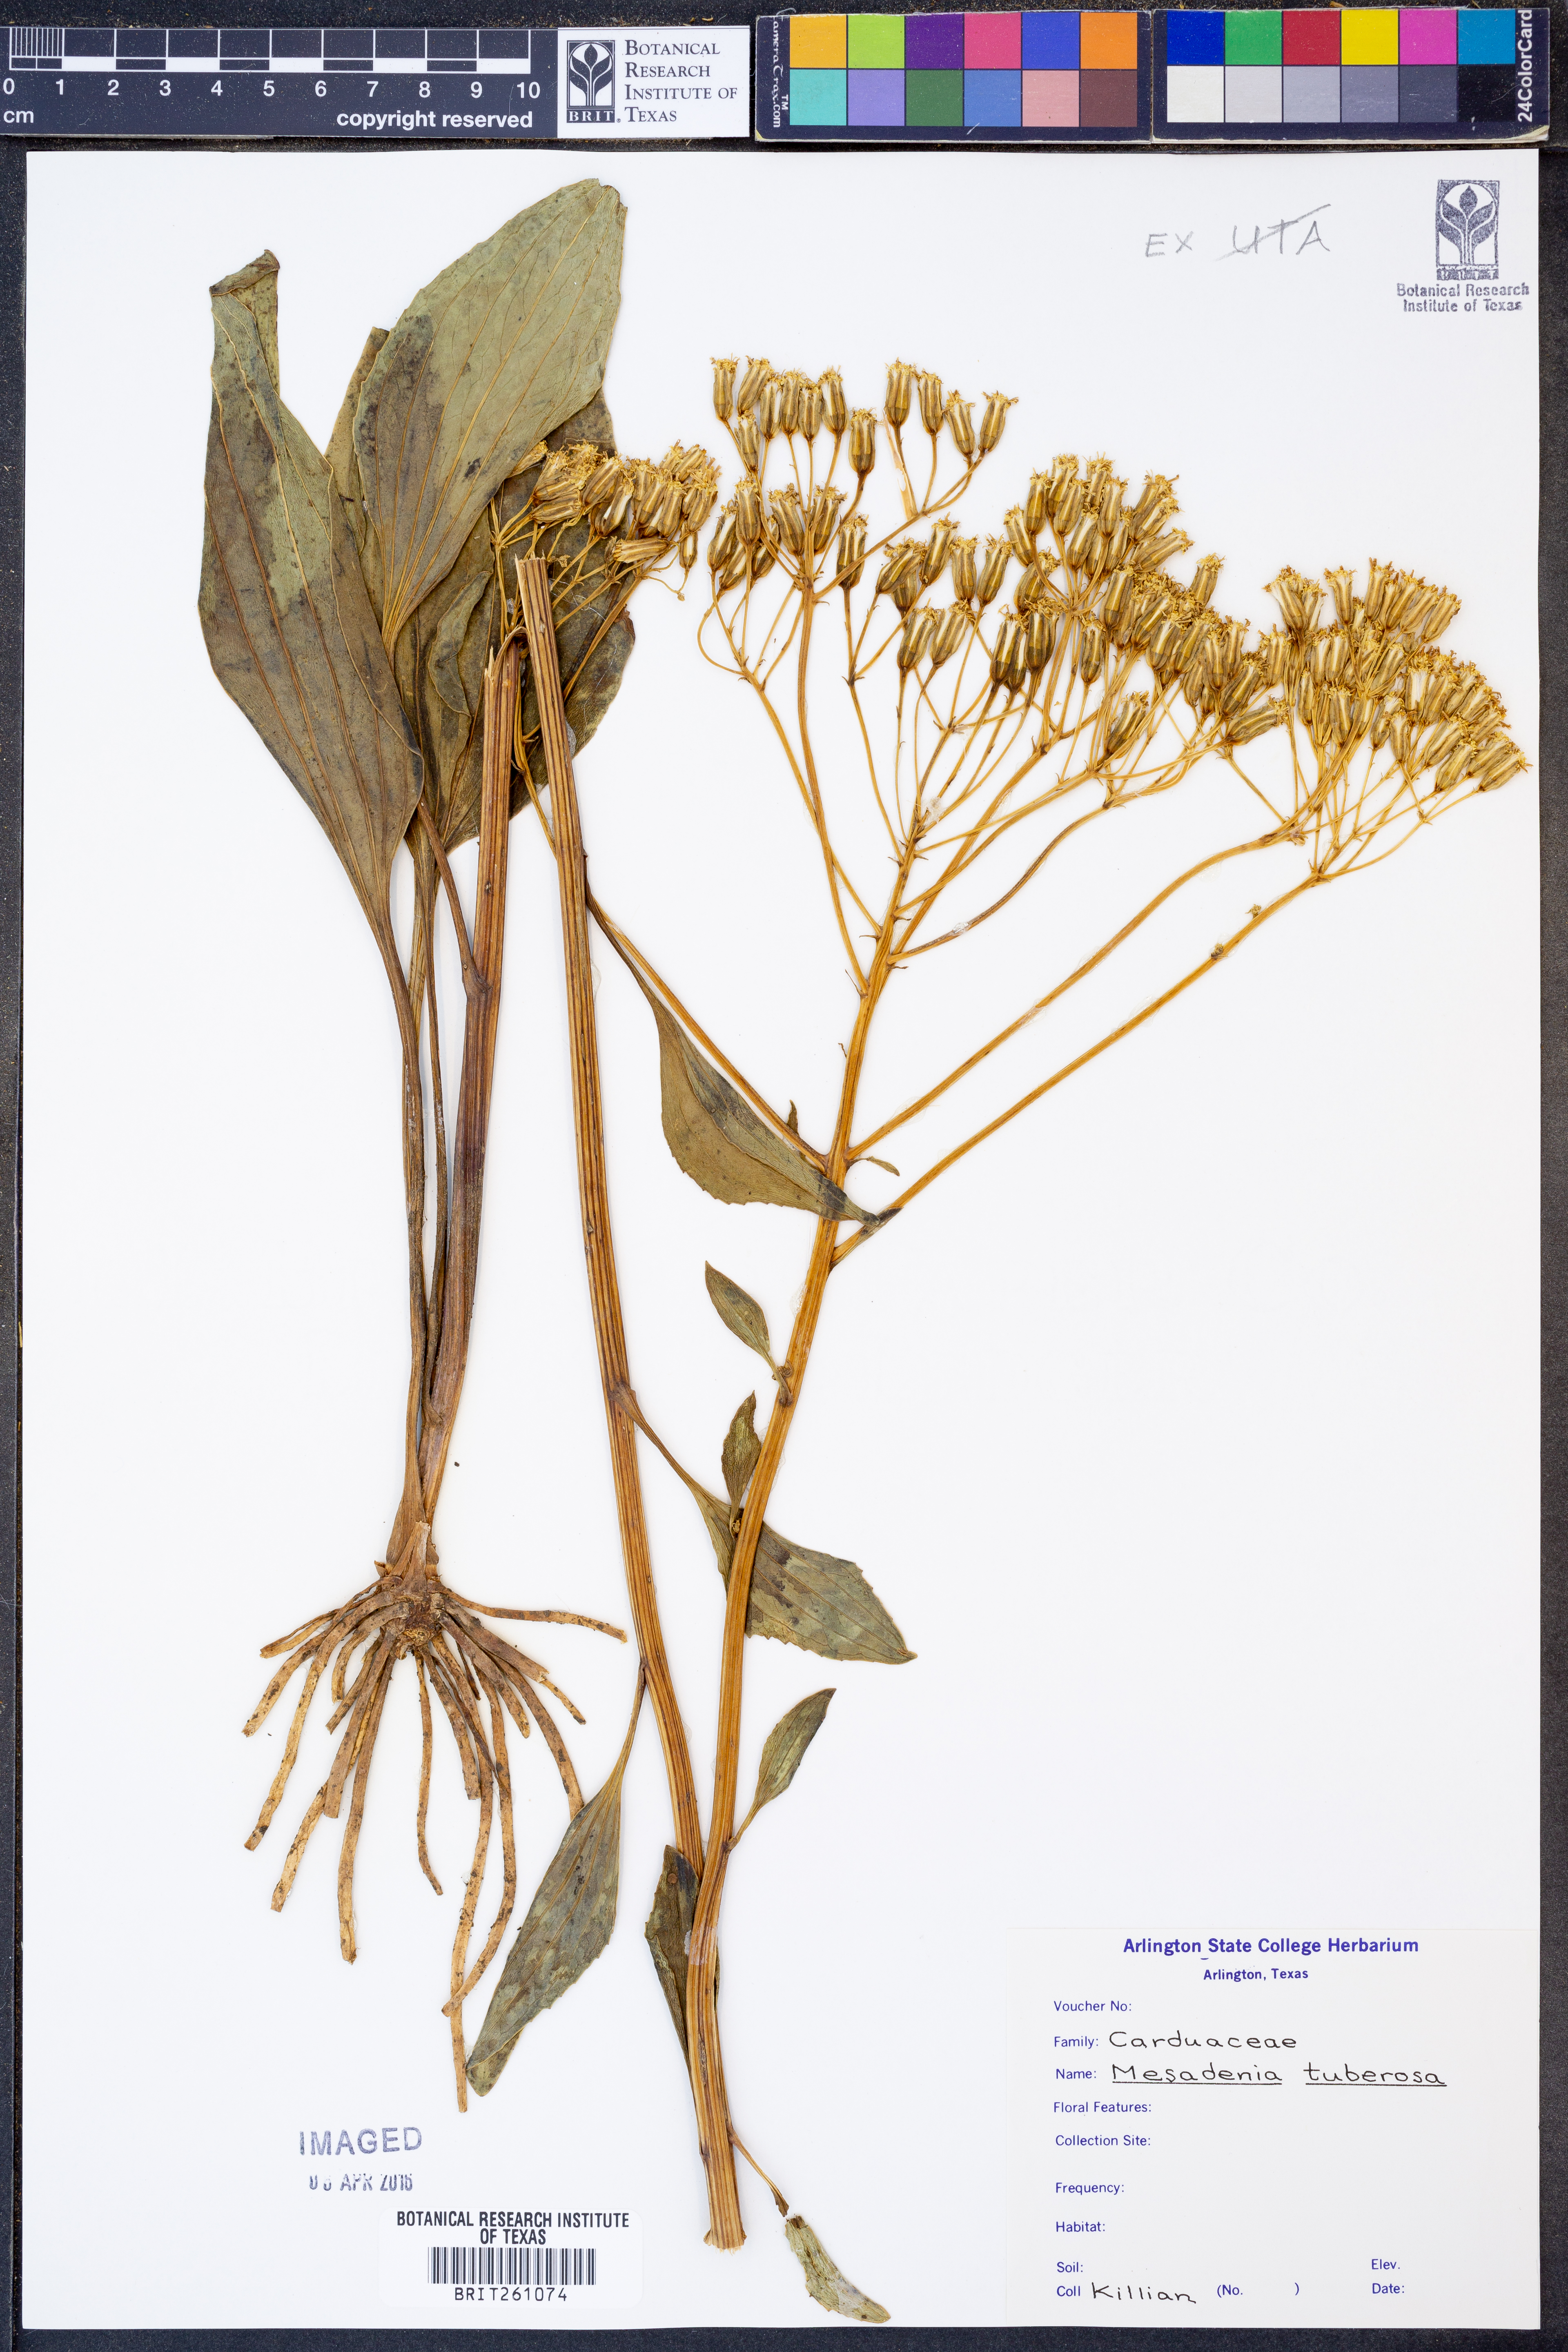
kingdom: Plantae
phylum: Tracheophyta
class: Magnoliopsida
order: Asterales
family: Asteraceae
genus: Arnoglossum
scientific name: Arnoglossum plantagineum
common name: Groove-stemmed indian-plantain
